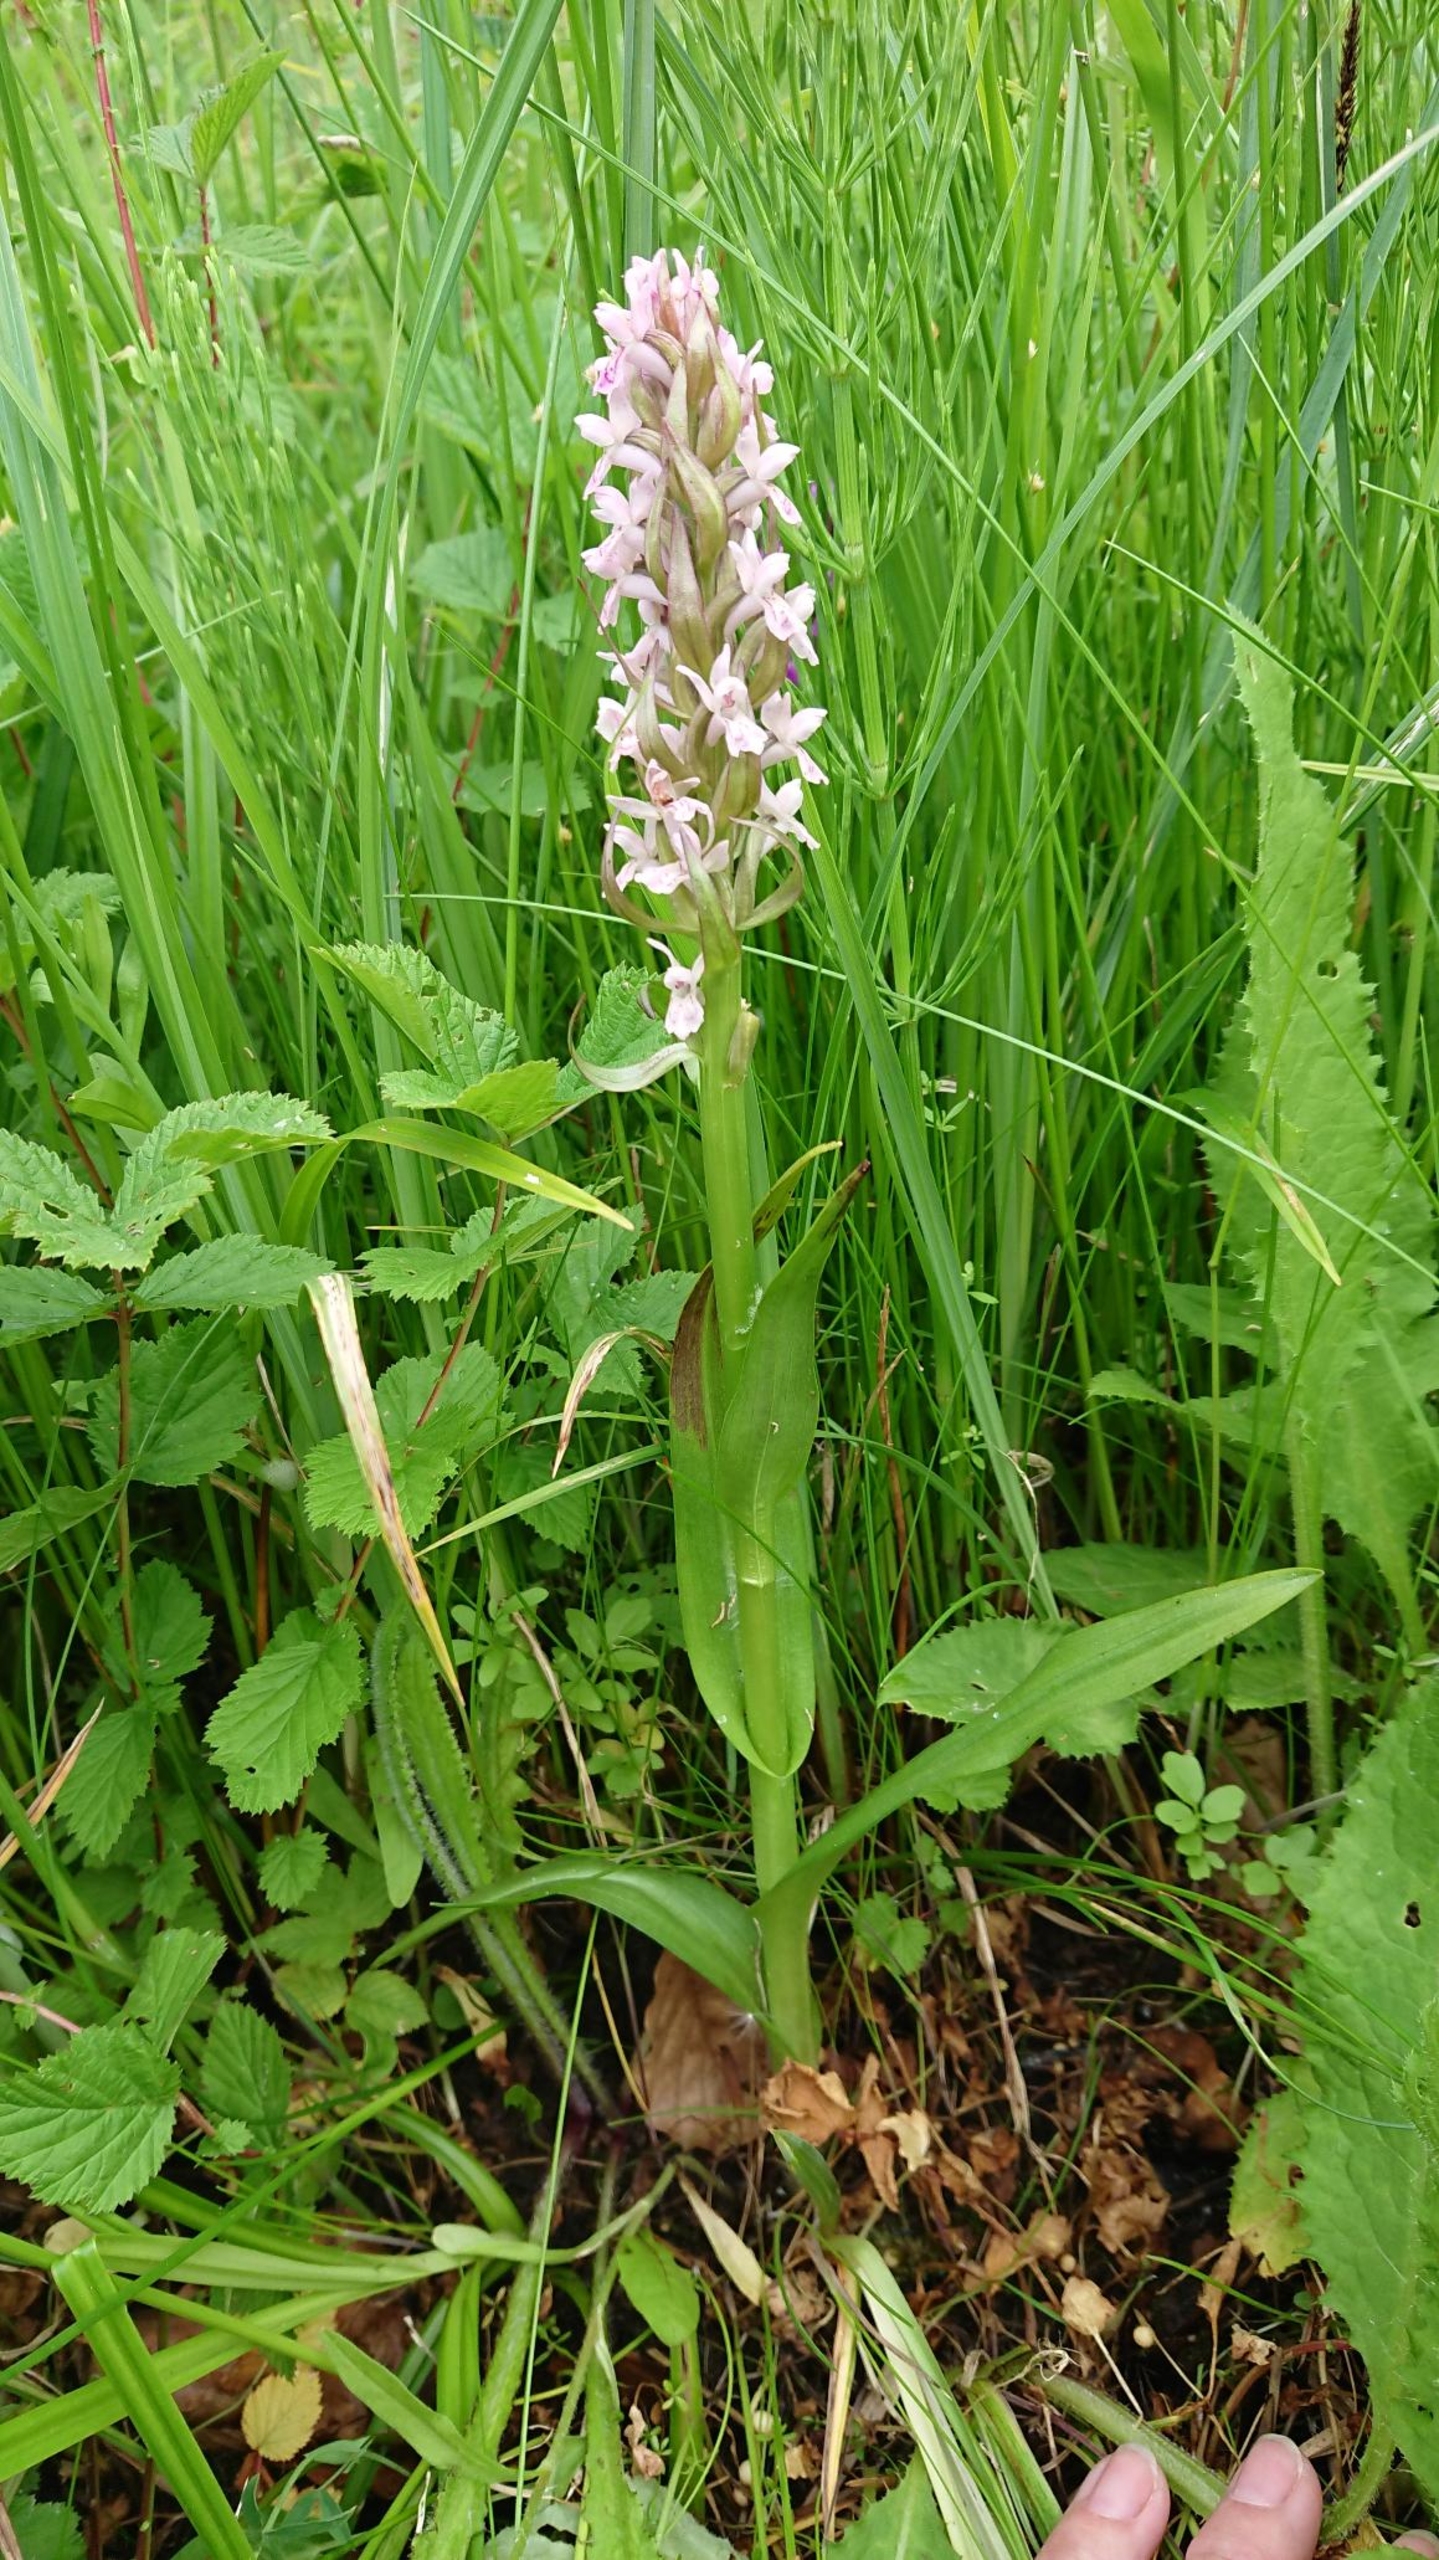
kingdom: Plantae
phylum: Tracheophyta
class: Liliopsida
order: Asparagales
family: Orchidaceae
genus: Dactylorhiza
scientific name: Dactylorhiza incarnata
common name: Kødfarvet gøgeurt
